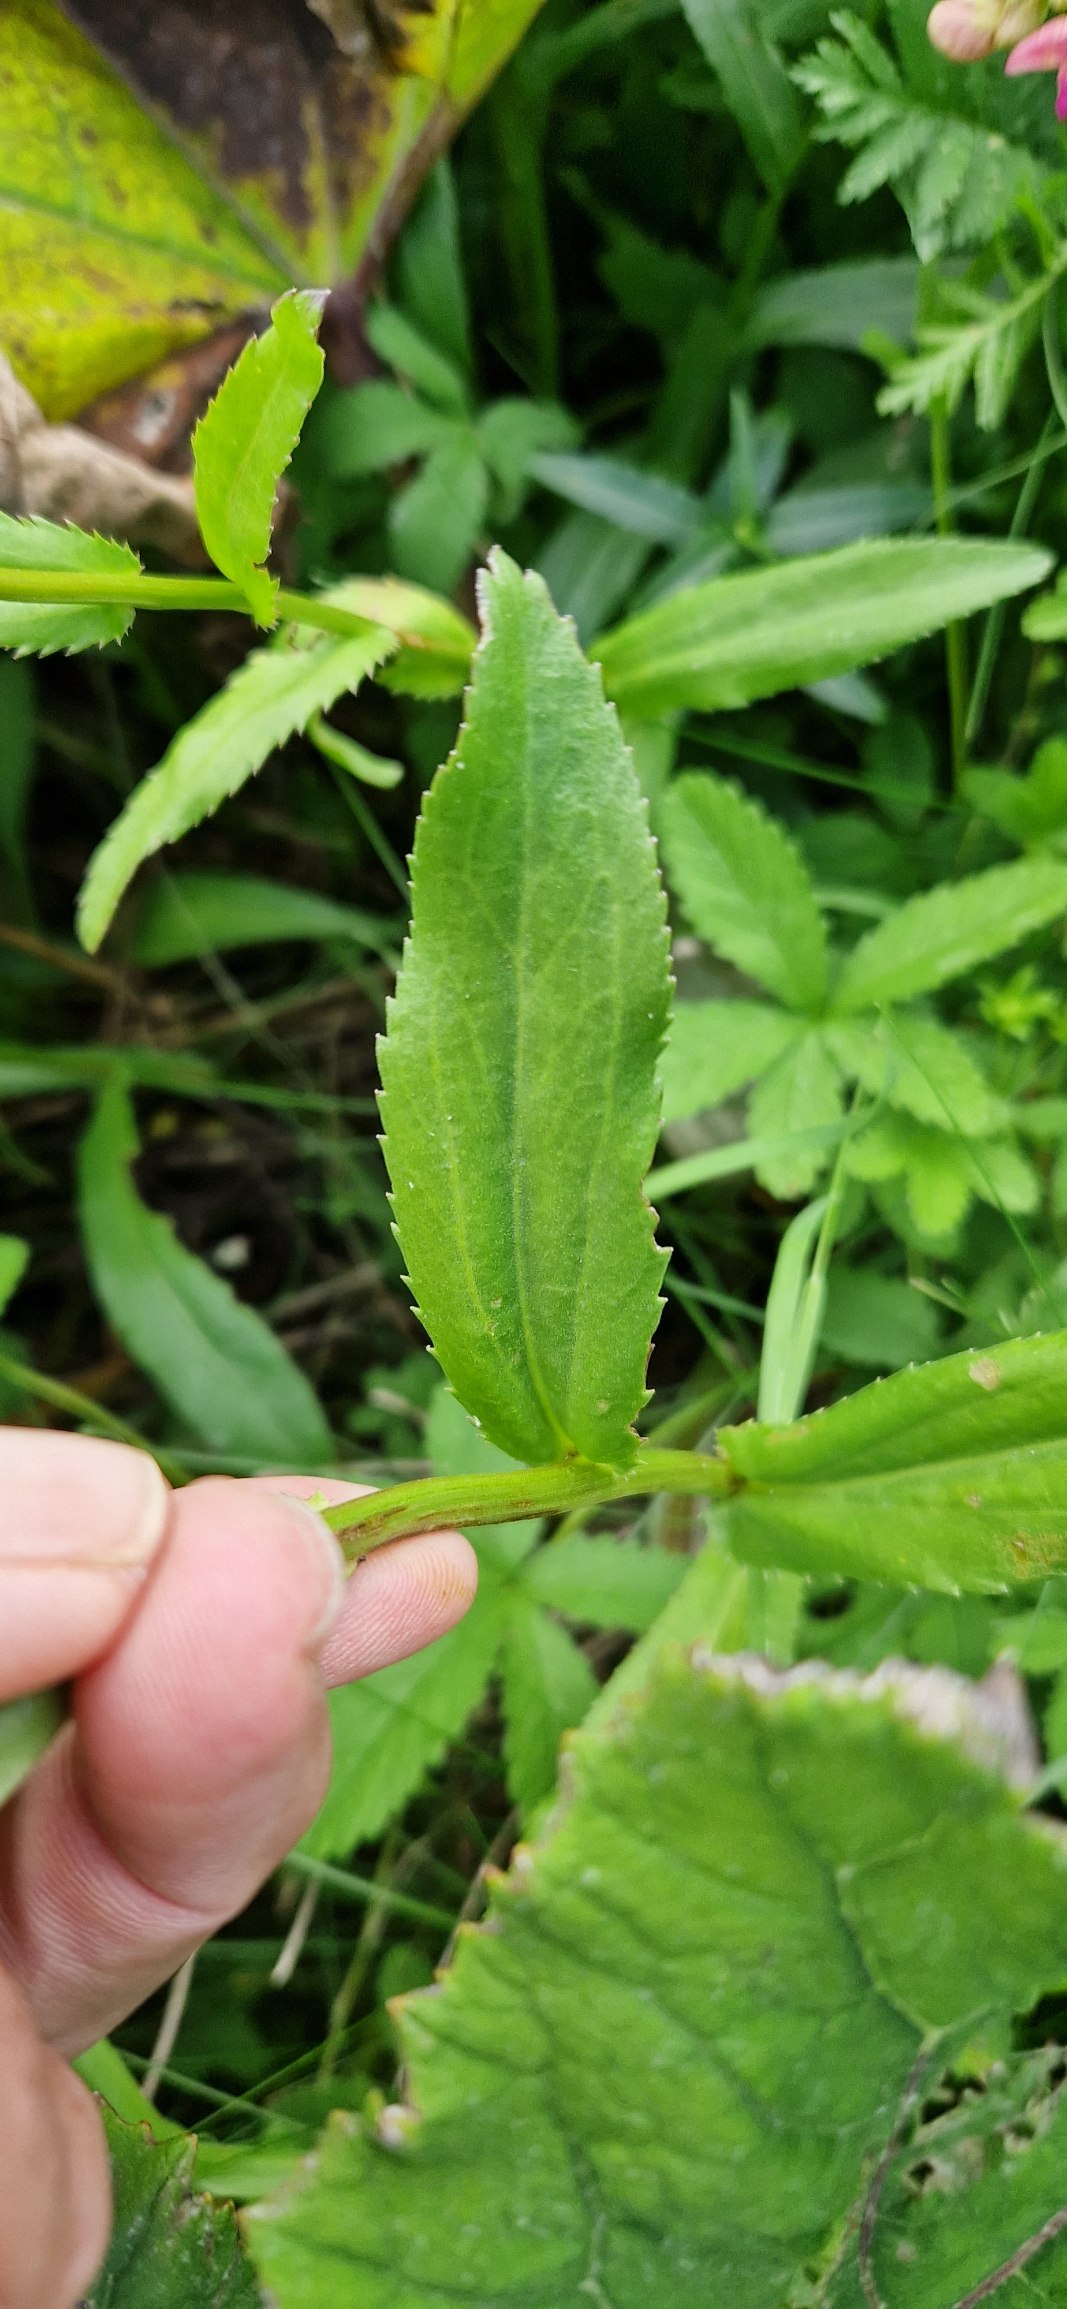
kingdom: Plantae
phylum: Tracheophyta
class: Magnoliopsida
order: Asterales
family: Asteraceae
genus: Leucanthemum
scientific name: Leucanthemum superbum
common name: Kæmpe-margerit
